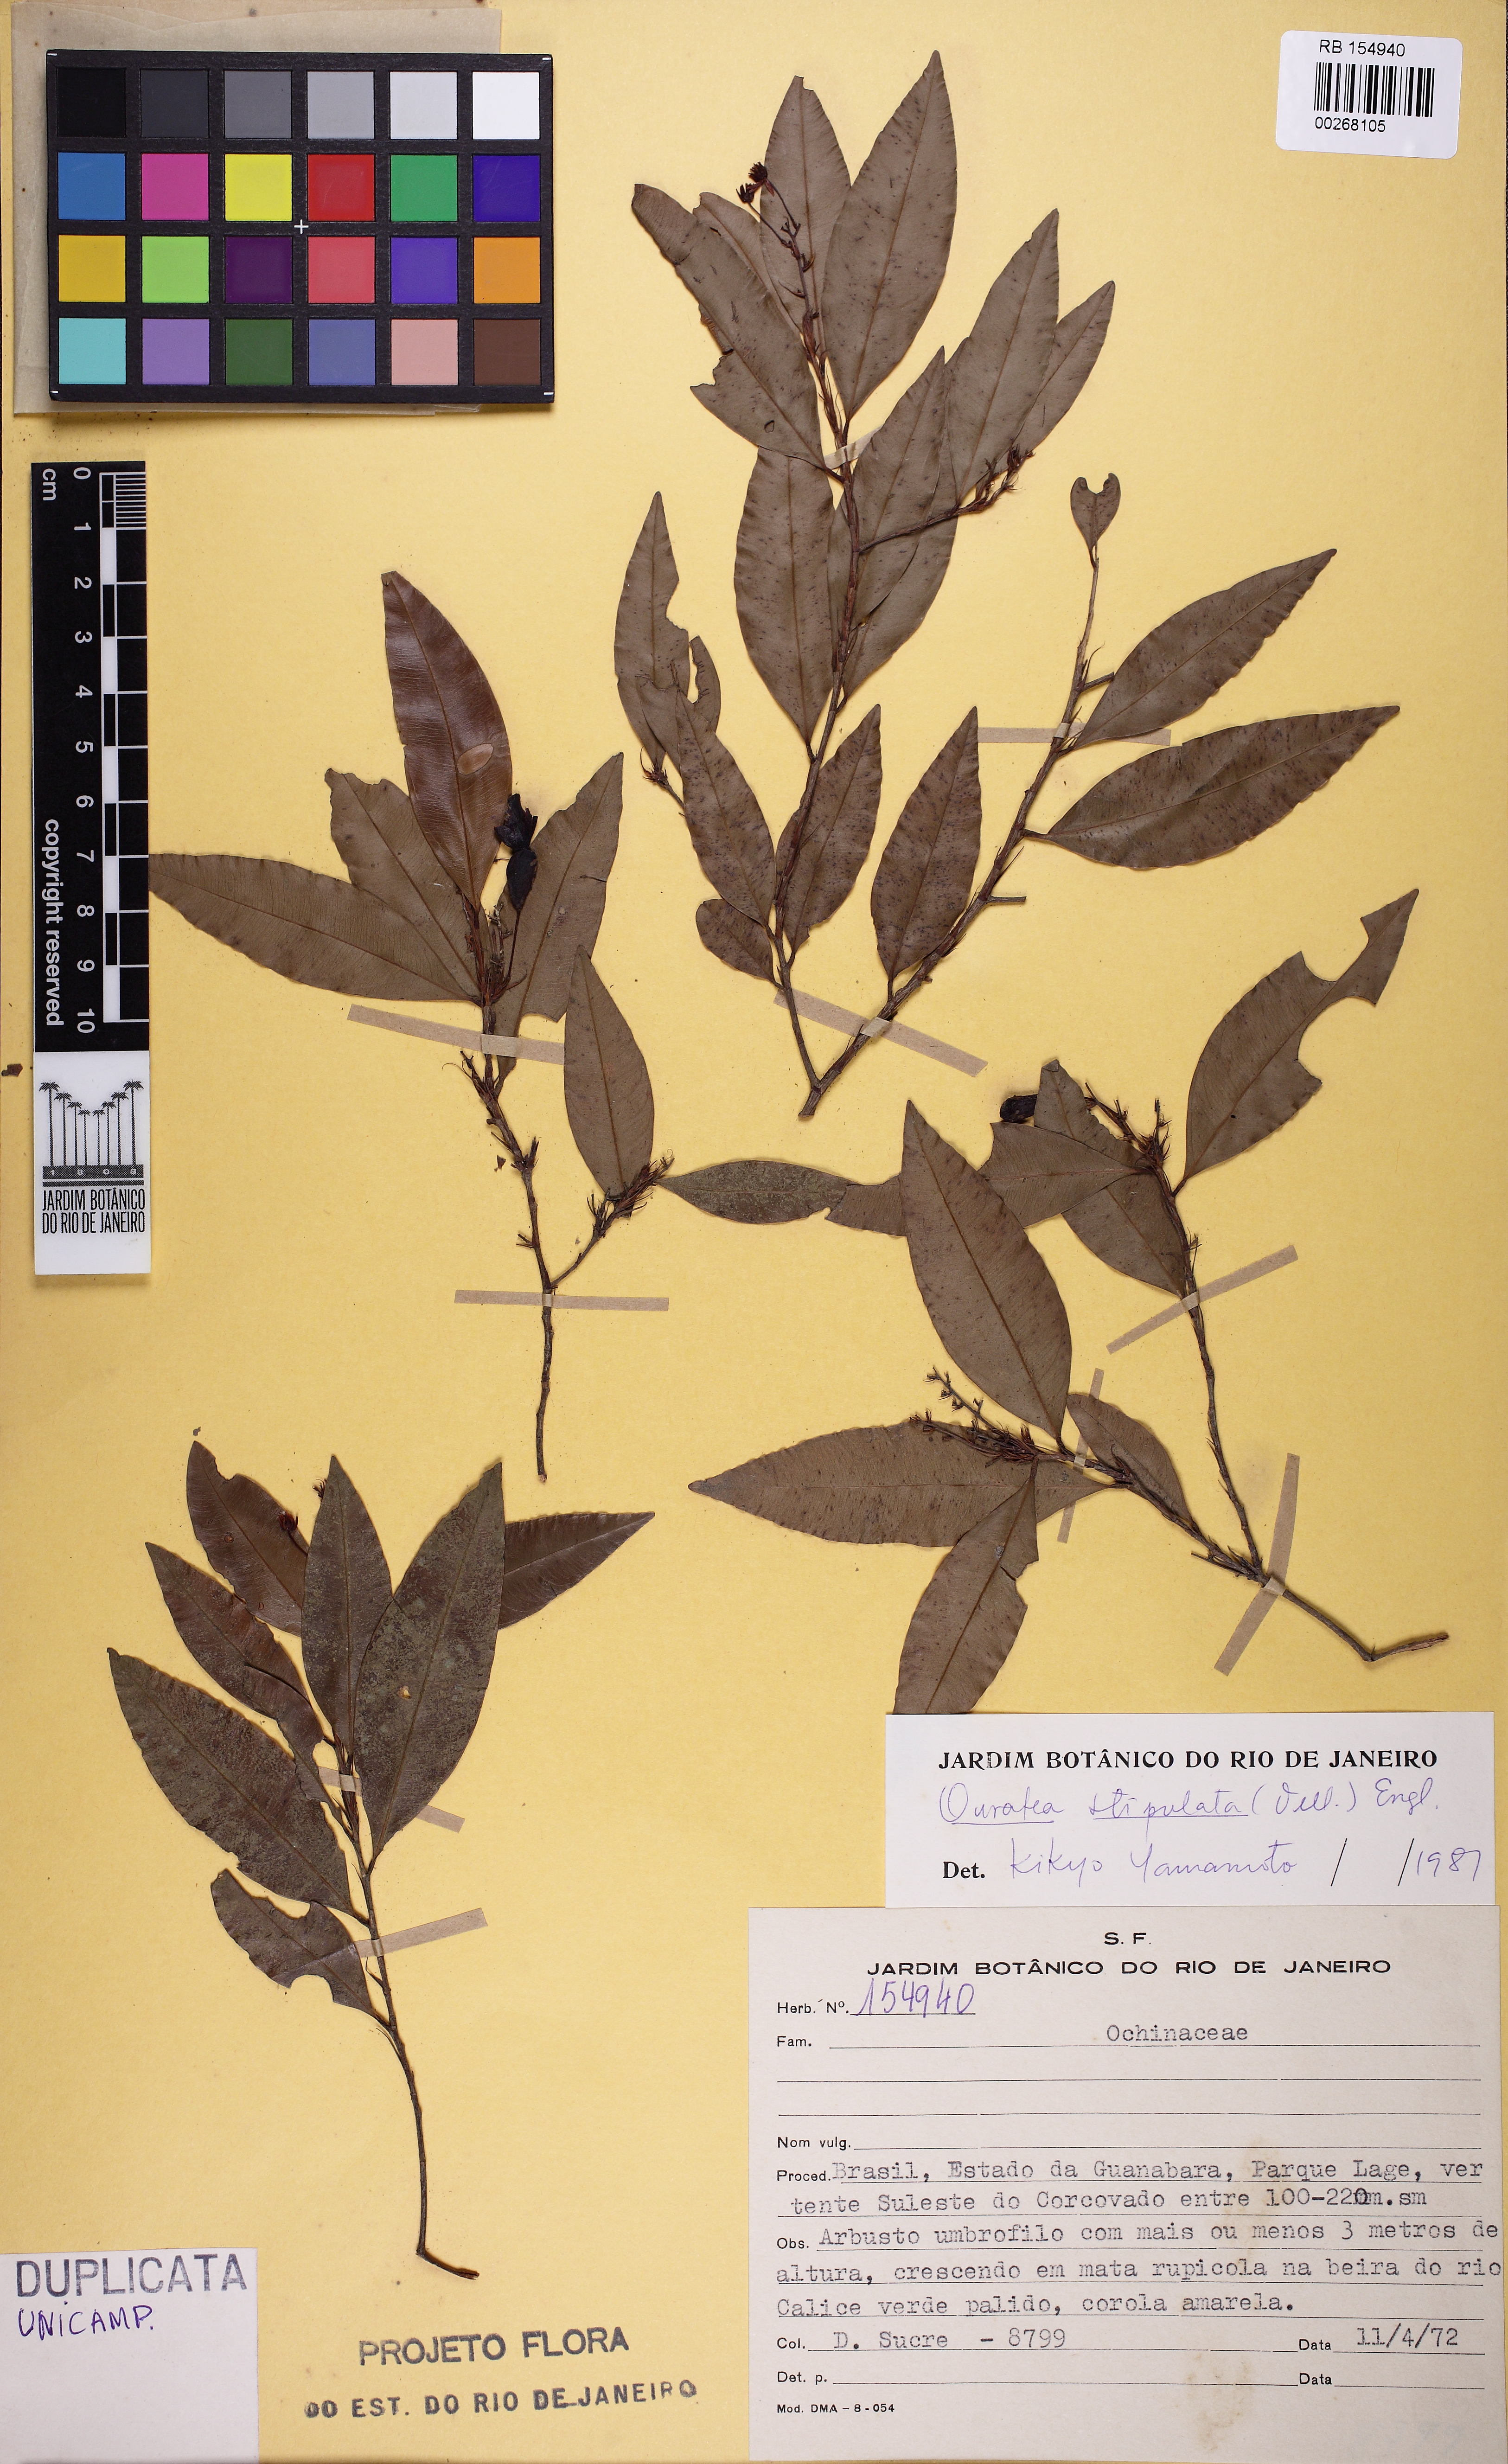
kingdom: Plantae
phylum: Tracheophyta
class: Magnoliopsida
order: Malpighiales
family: Ochnaceae
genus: Ouratea
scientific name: Ouratea stipulata
